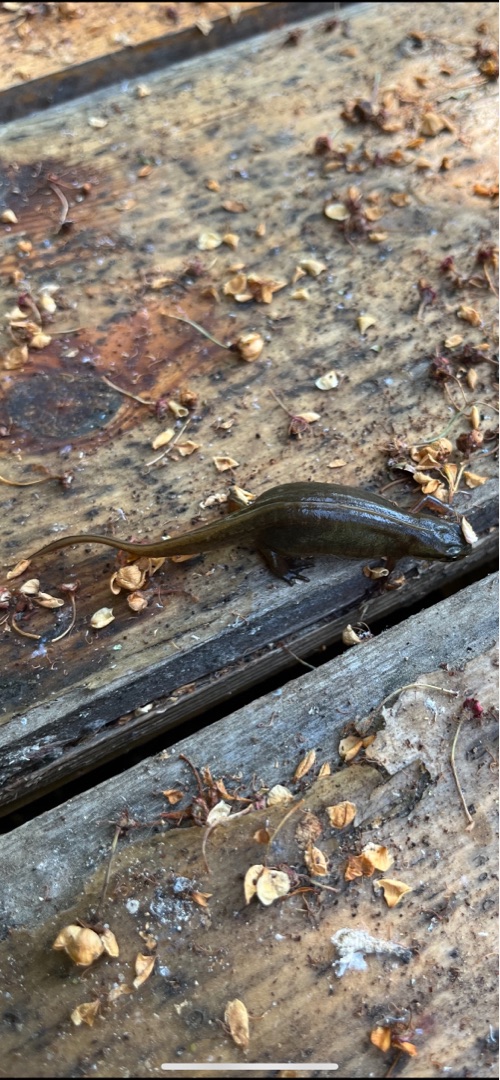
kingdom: Animalia
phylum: Chordata
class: Amphibia
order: Caudata
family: Salamandridae
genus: Lissotriton
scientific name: Lissotriton vulgaris
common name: Lille vandsalamander
